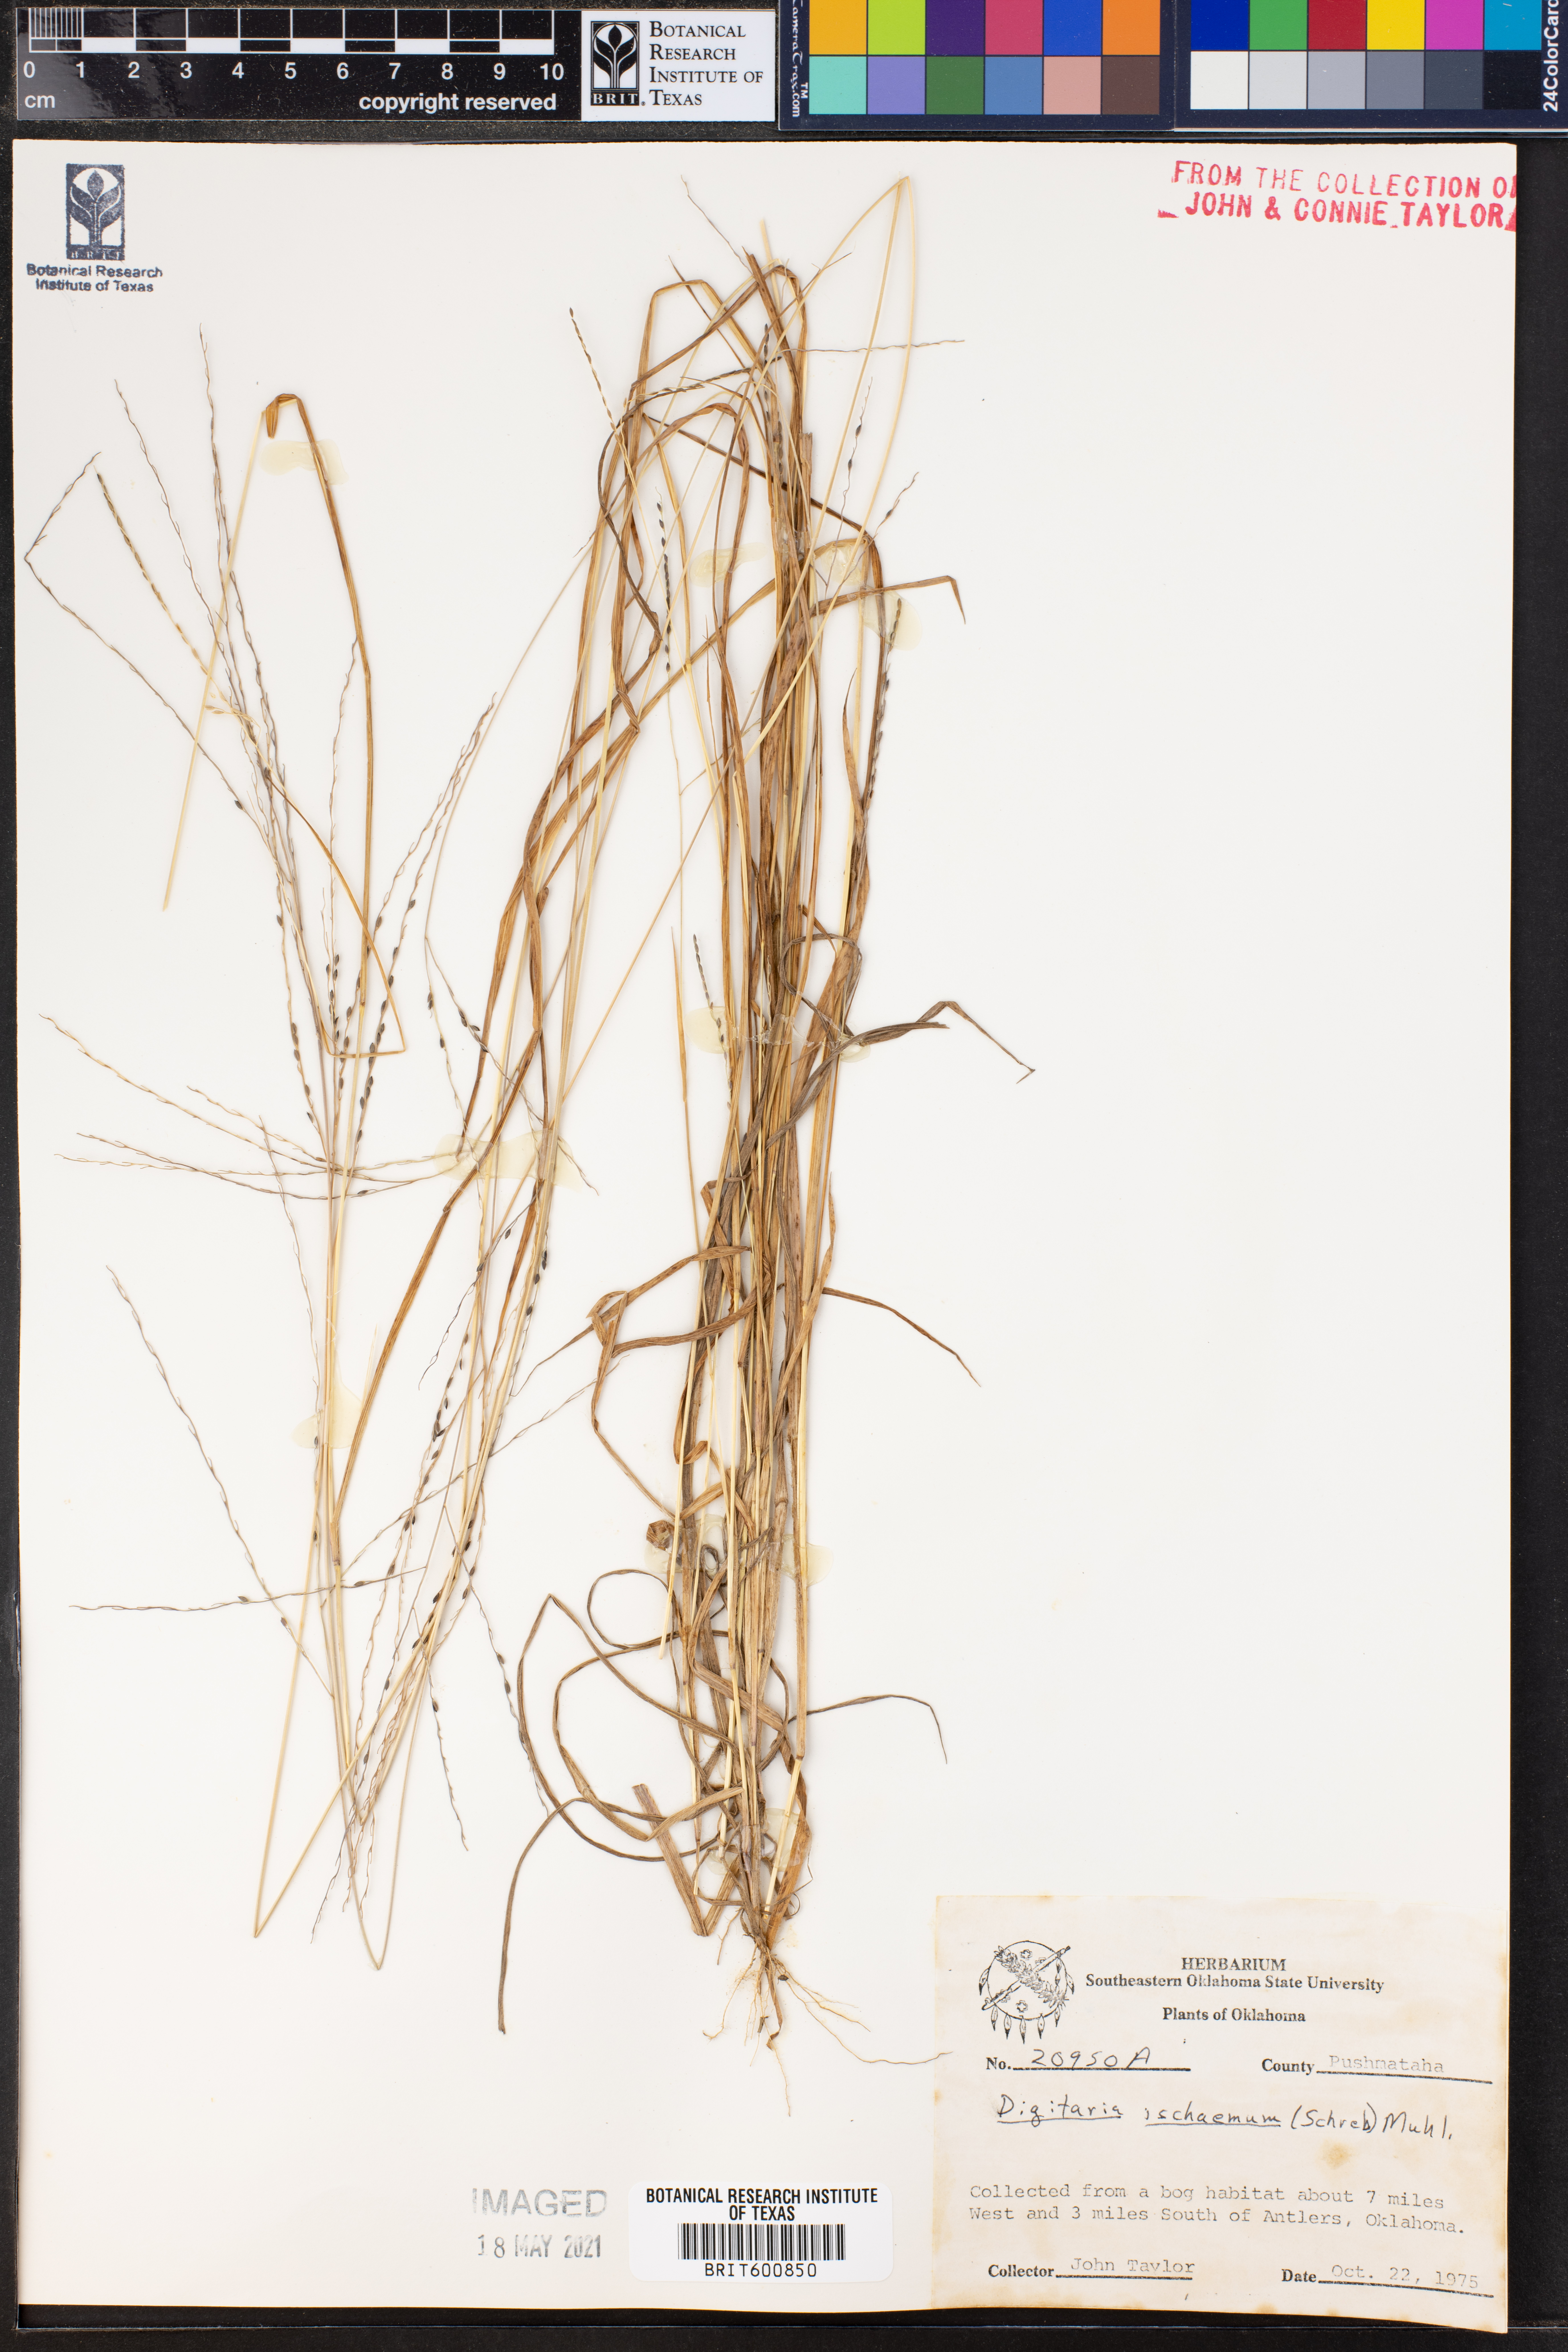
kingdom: Plantae
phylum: Tracheophyta
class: Liliopsida
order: Poales
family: Poaceae
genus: Digitaria
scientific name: Digitaria ischaemum
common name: Smooth crabgrass
